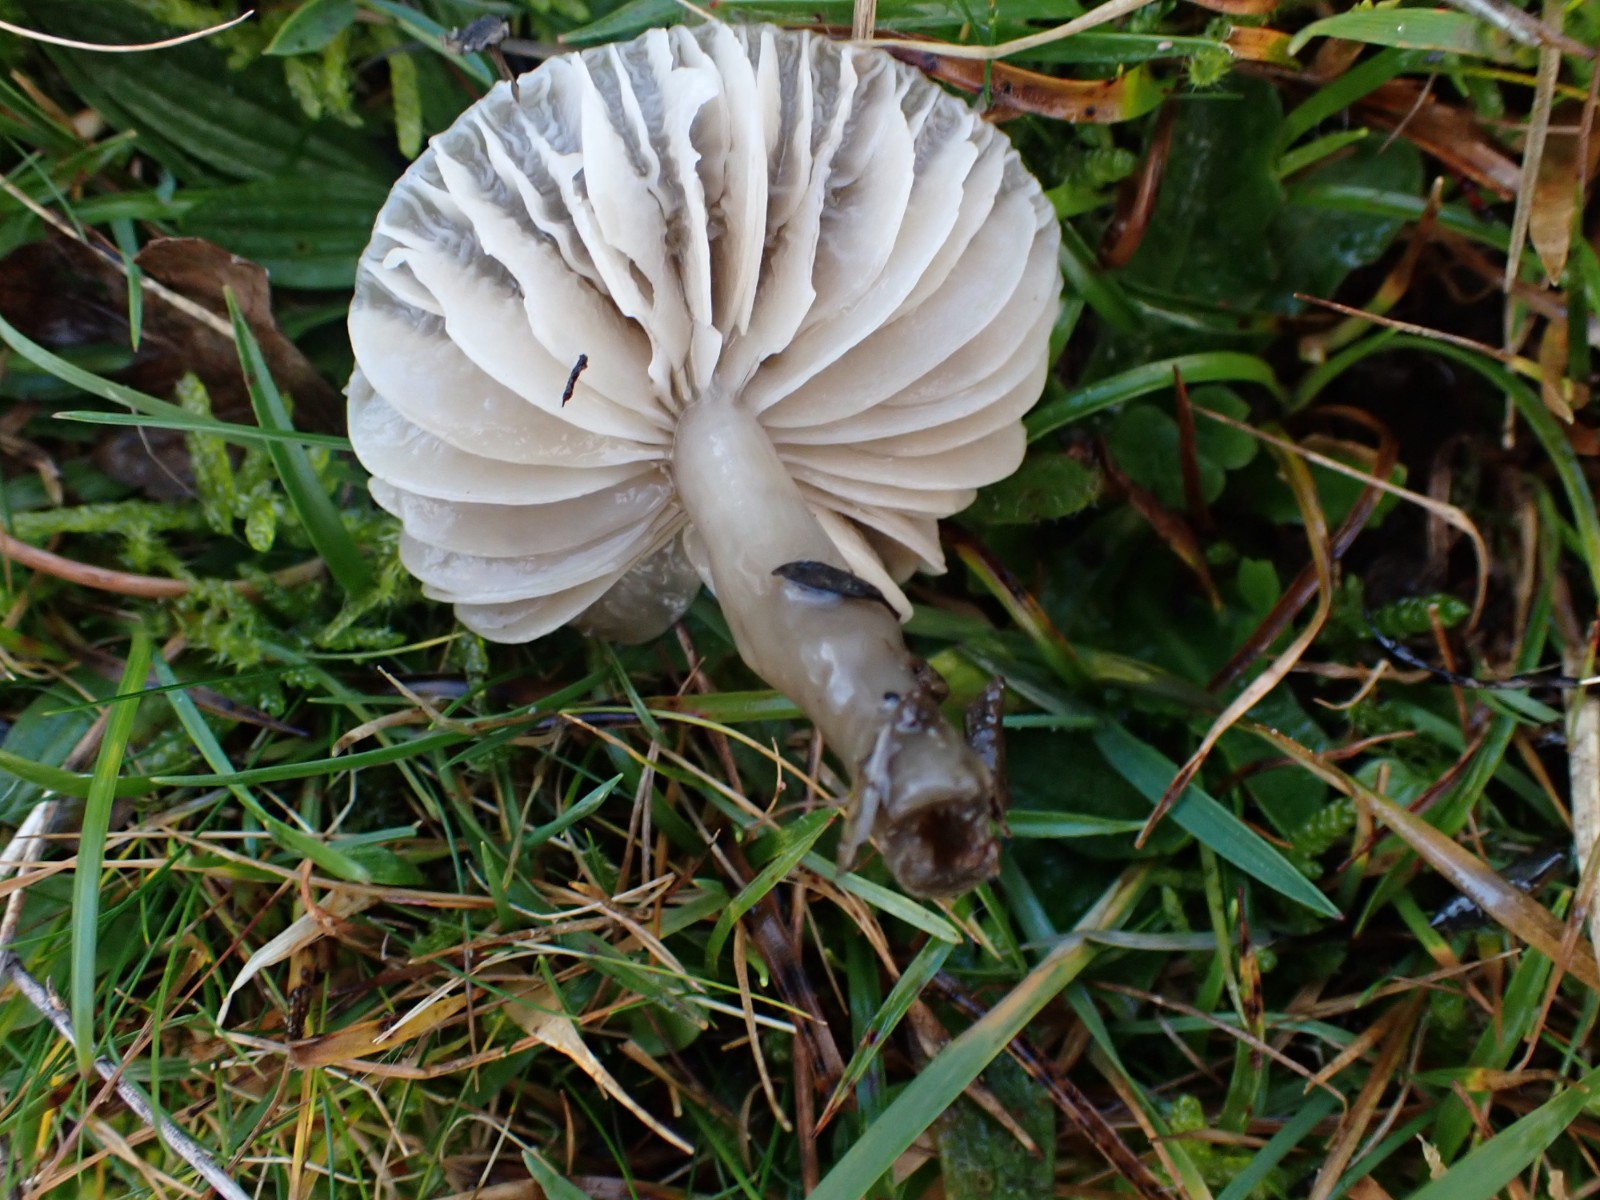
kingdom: Fungi
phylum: Basidiomycota
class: Agaricomycetes
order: Agaricales
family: Hygrophoraceae
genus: Gliophorus
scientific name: Gliophorus irrigatus
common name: slimet vokshat
